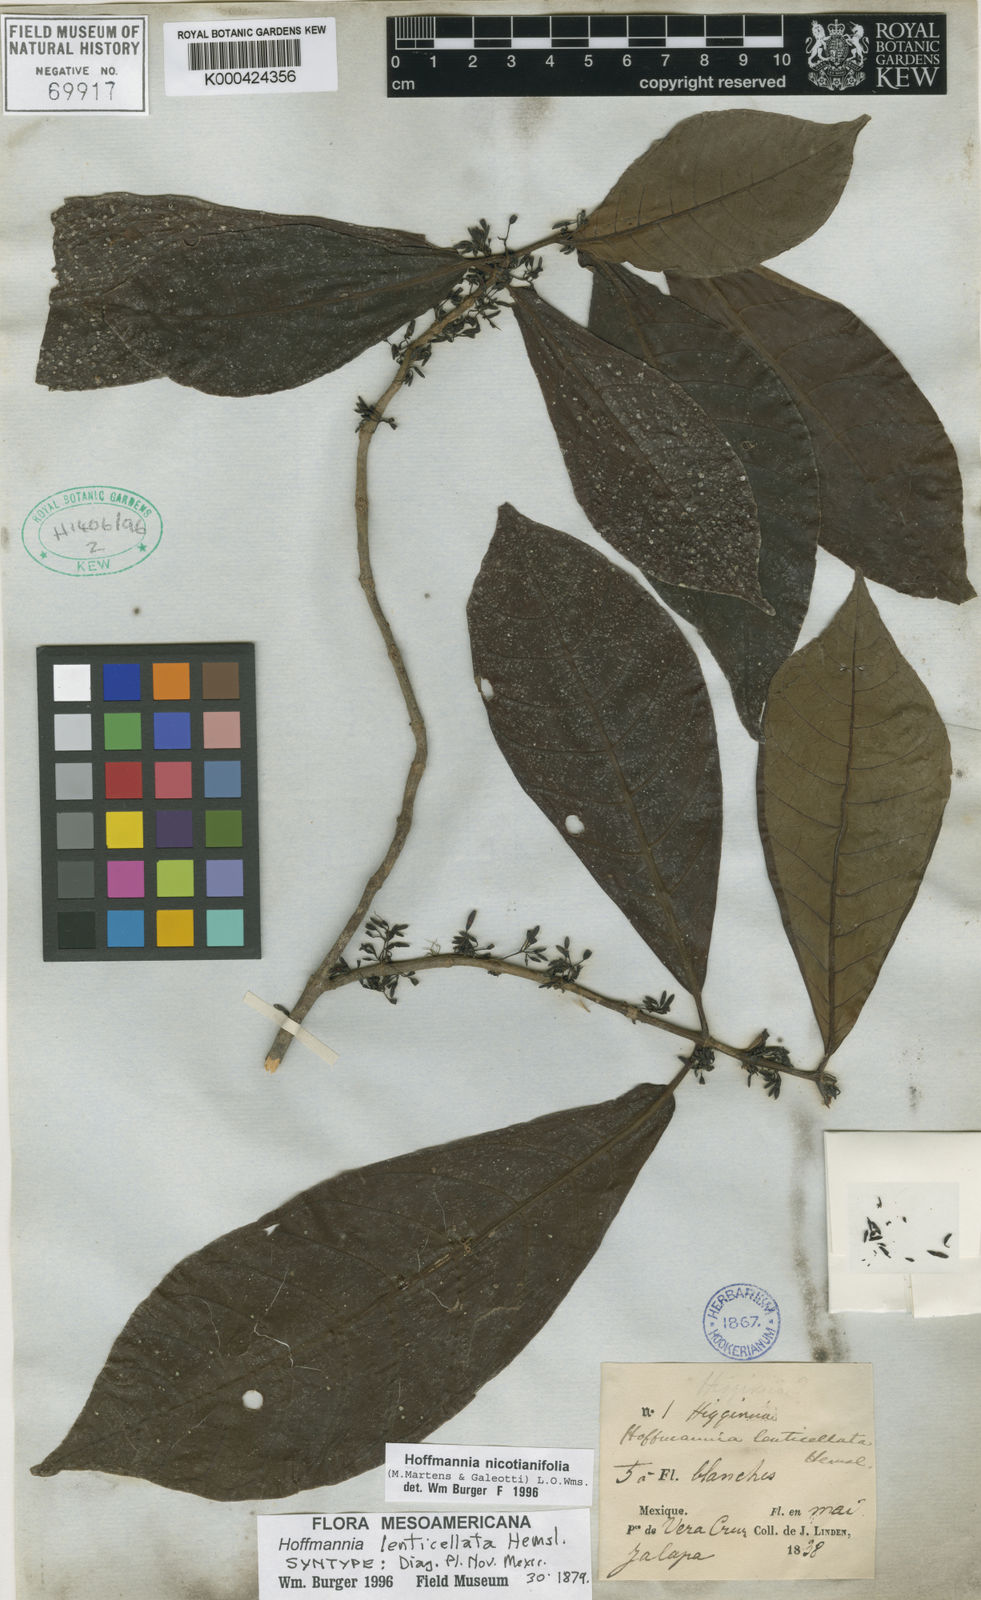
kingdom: Plantae
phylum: Tracheophyta
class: Magnoliopsida
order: Gentianales
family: Rubiaceae
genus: Hoffmannia
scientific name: Hoffmannia
